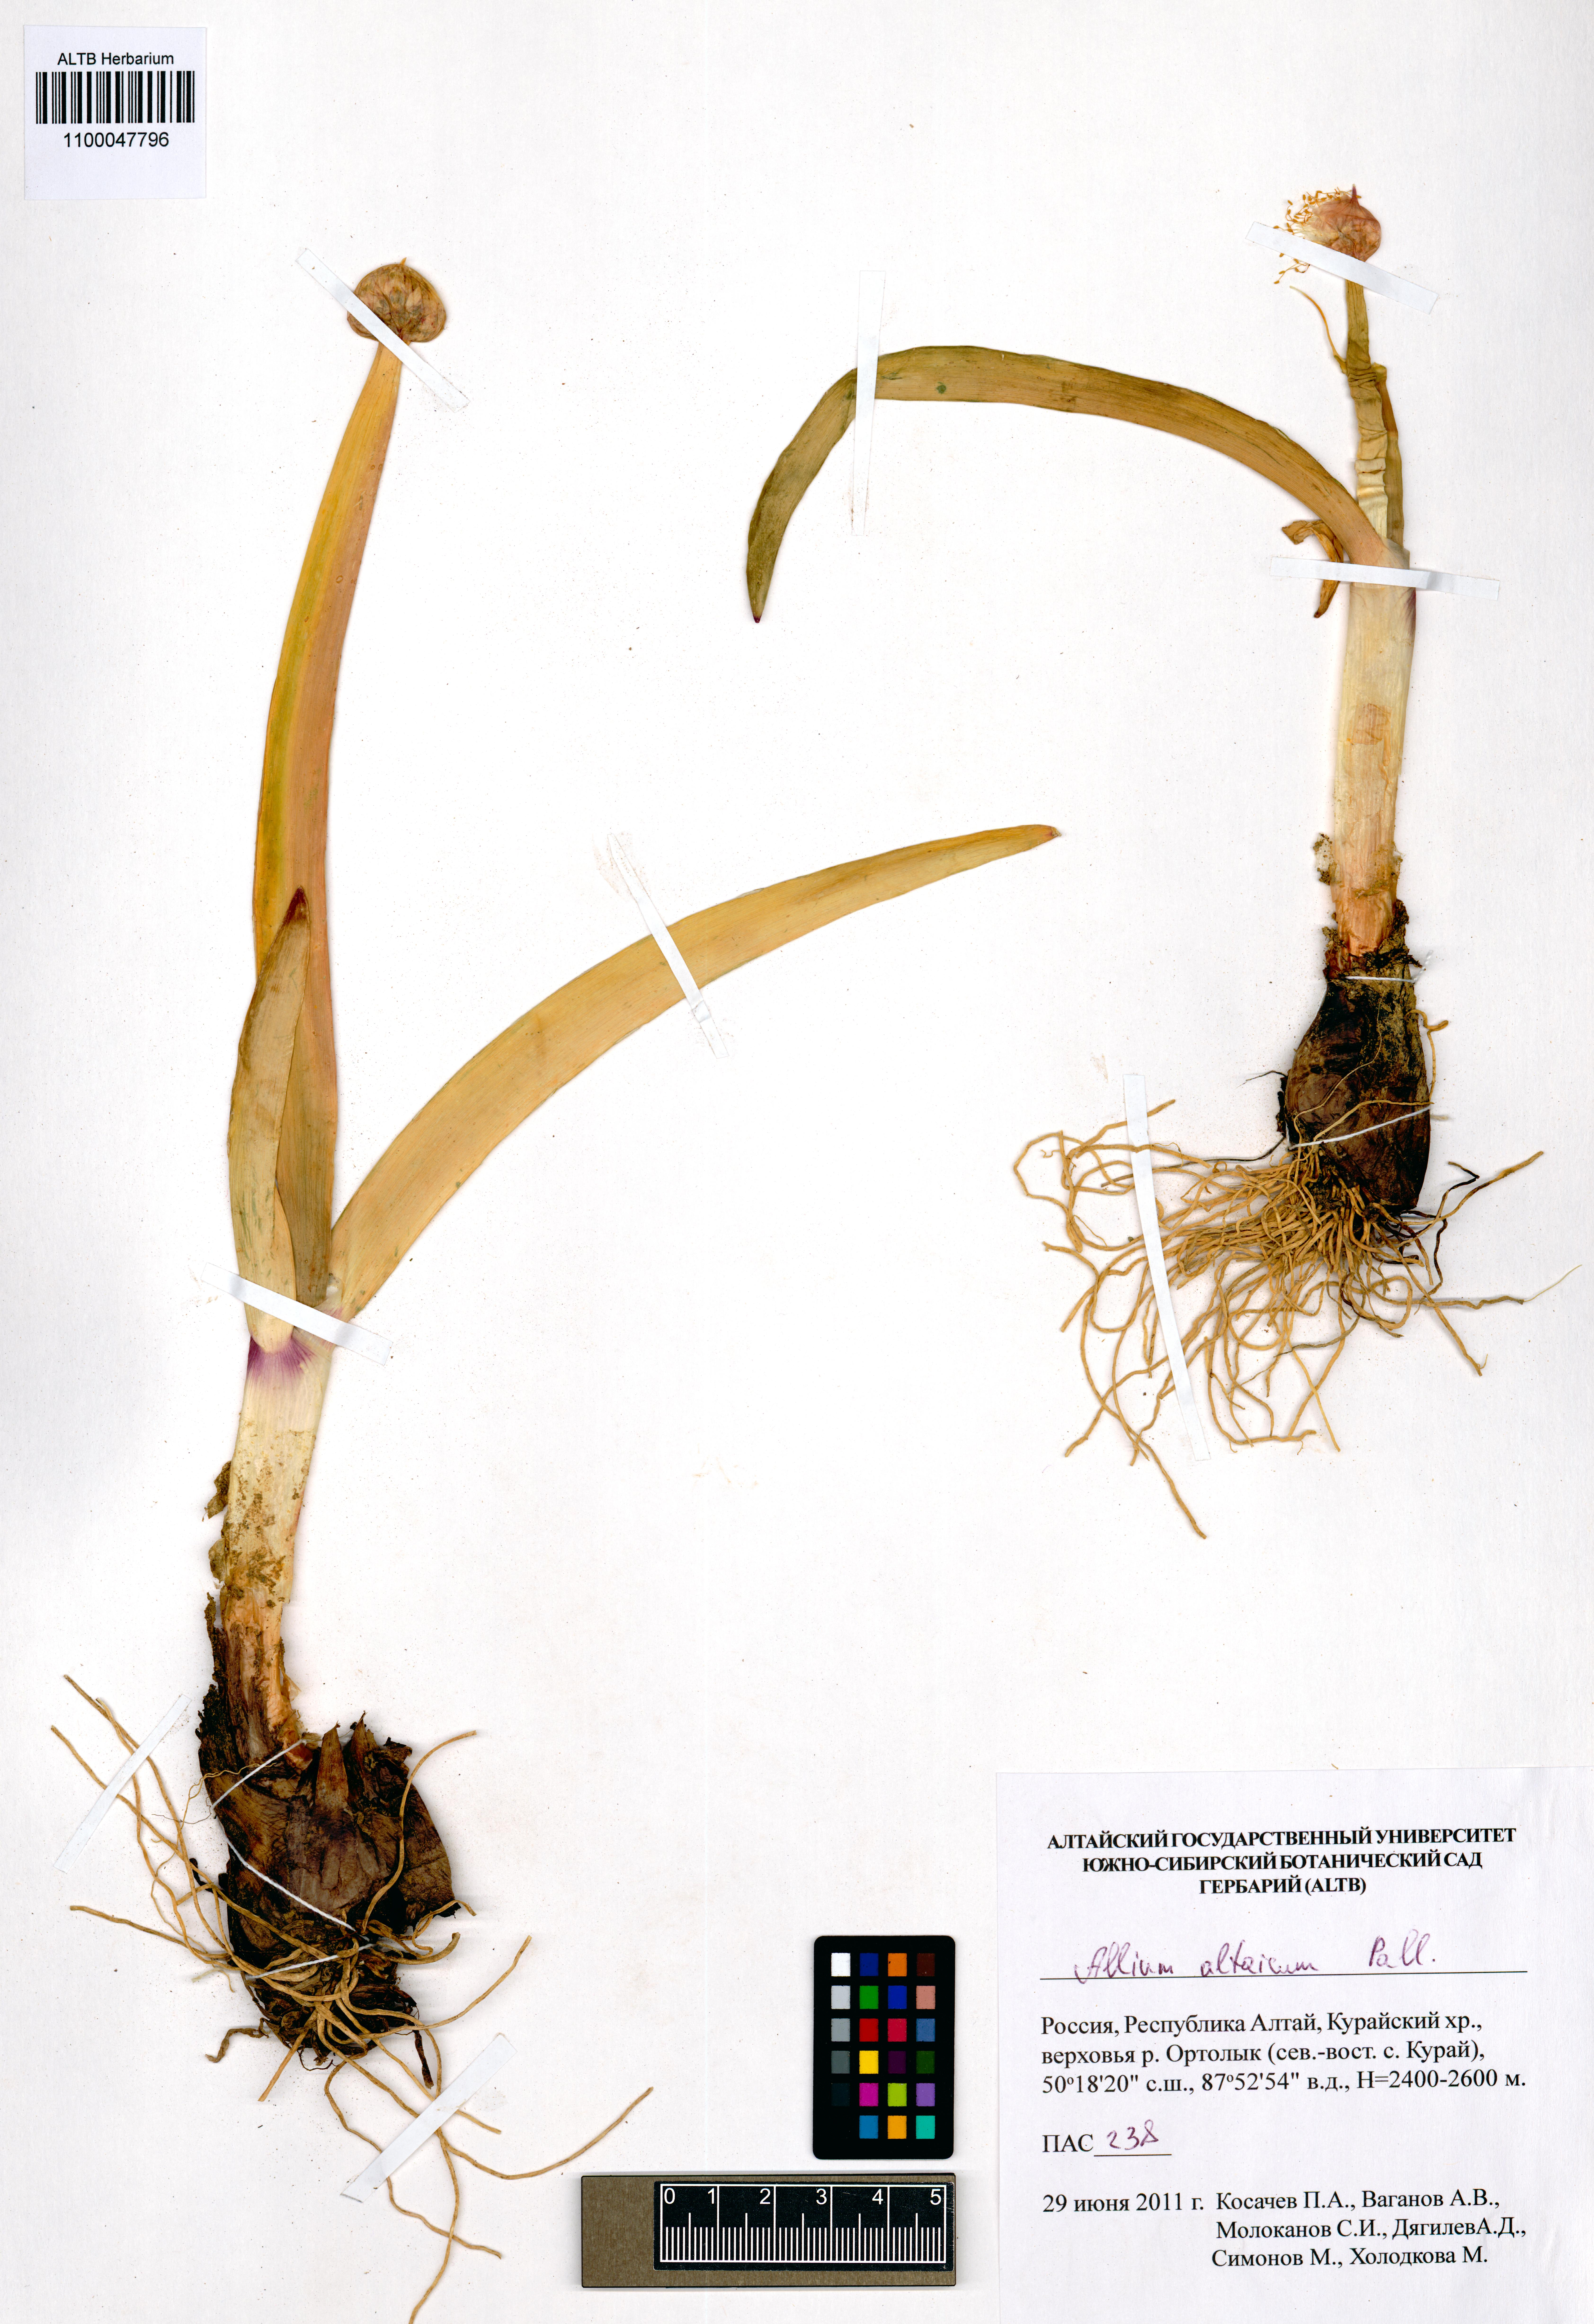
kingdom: Plantae
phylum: Tracheophyta
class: Liliopsida
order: Asparagales
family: Amaryllidaceae
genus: Allium
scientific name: Allium altaicum
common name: Altai onion
